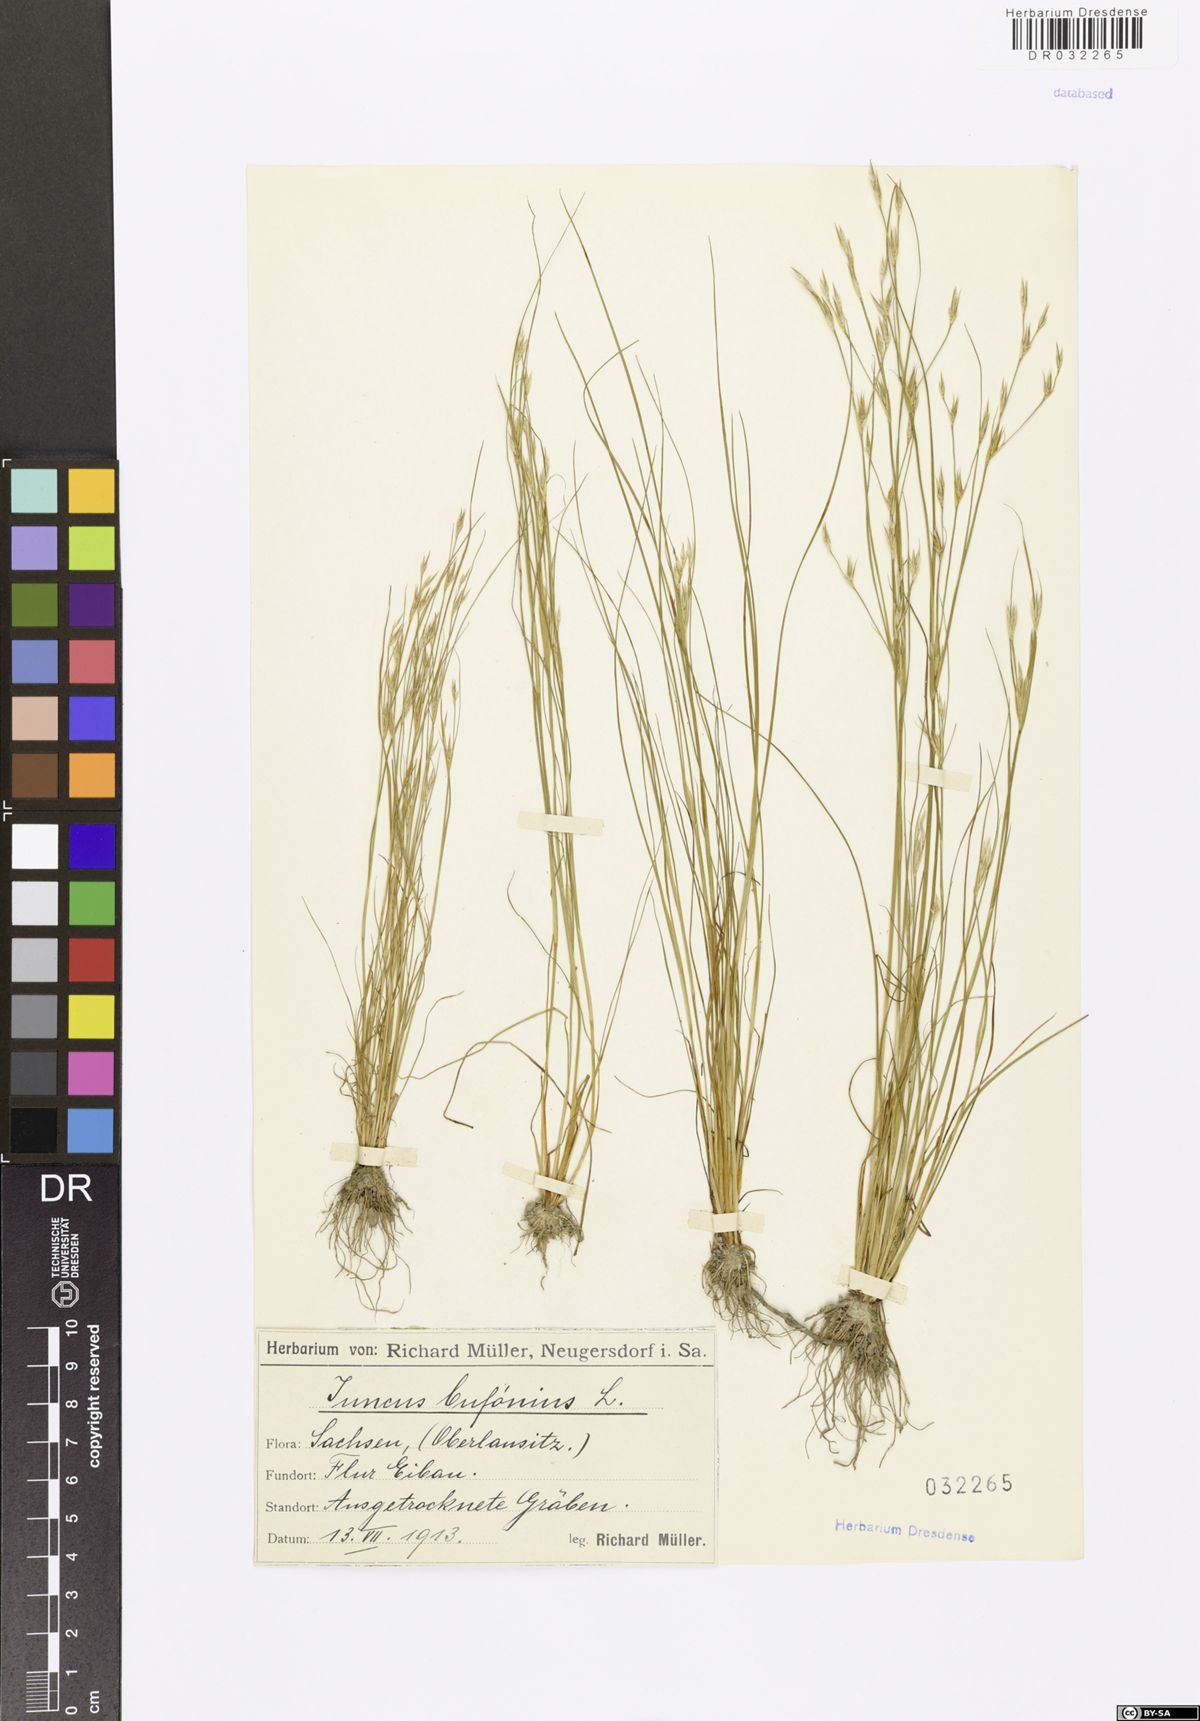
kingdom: Plantae
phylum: Tracheophyta
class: Liliopsida
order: Poales
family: Juncaceae
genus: Juncus
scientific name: Juncus bufonius
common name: Toad rush
